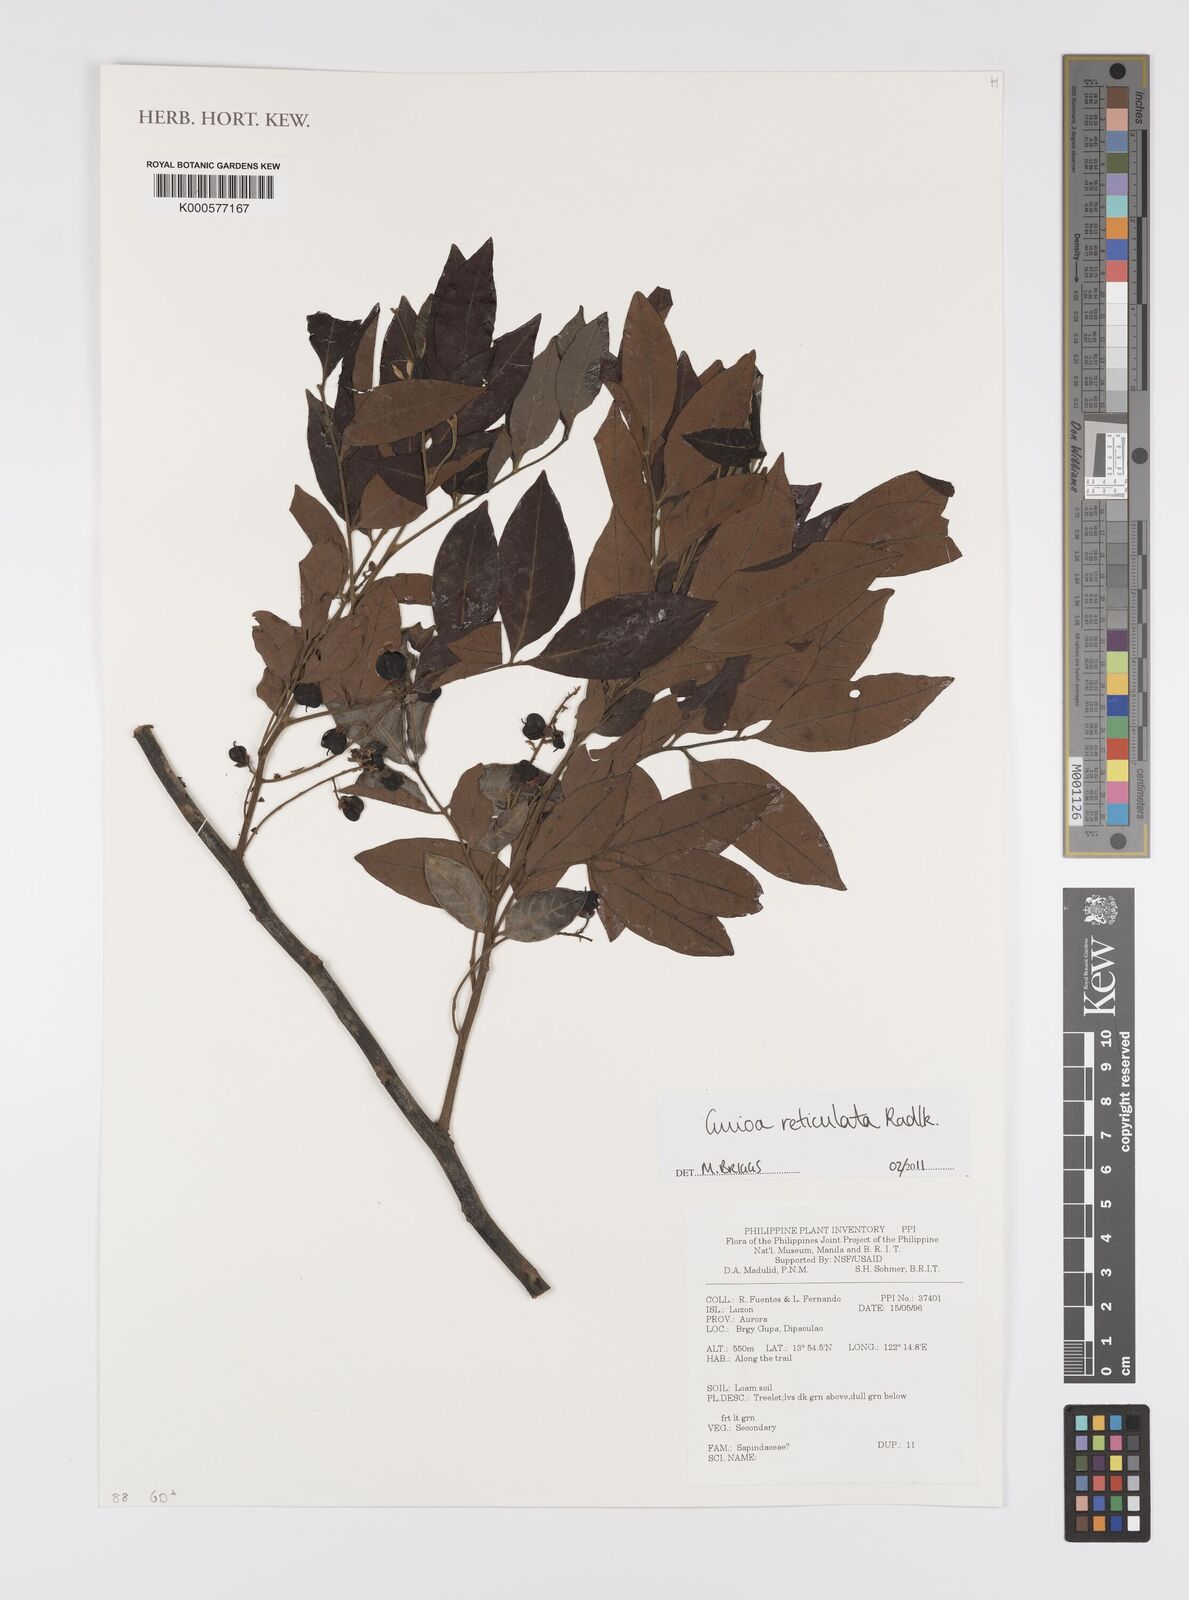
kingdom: Plantae
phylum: Tracheophyta
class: Magnoliopsida
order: Sapindales
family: Sapindaceae
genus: Guioa
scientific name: Guioa reticulata
